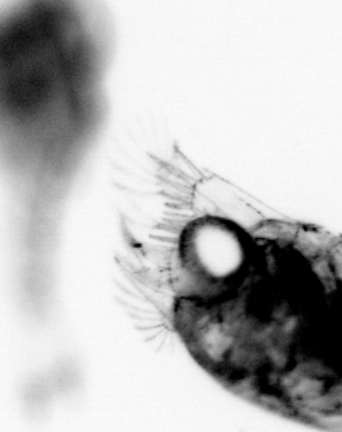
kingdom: Animalia
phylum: Arthropoda
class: Malacostraca
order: Decapoda
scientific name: Decapoda
